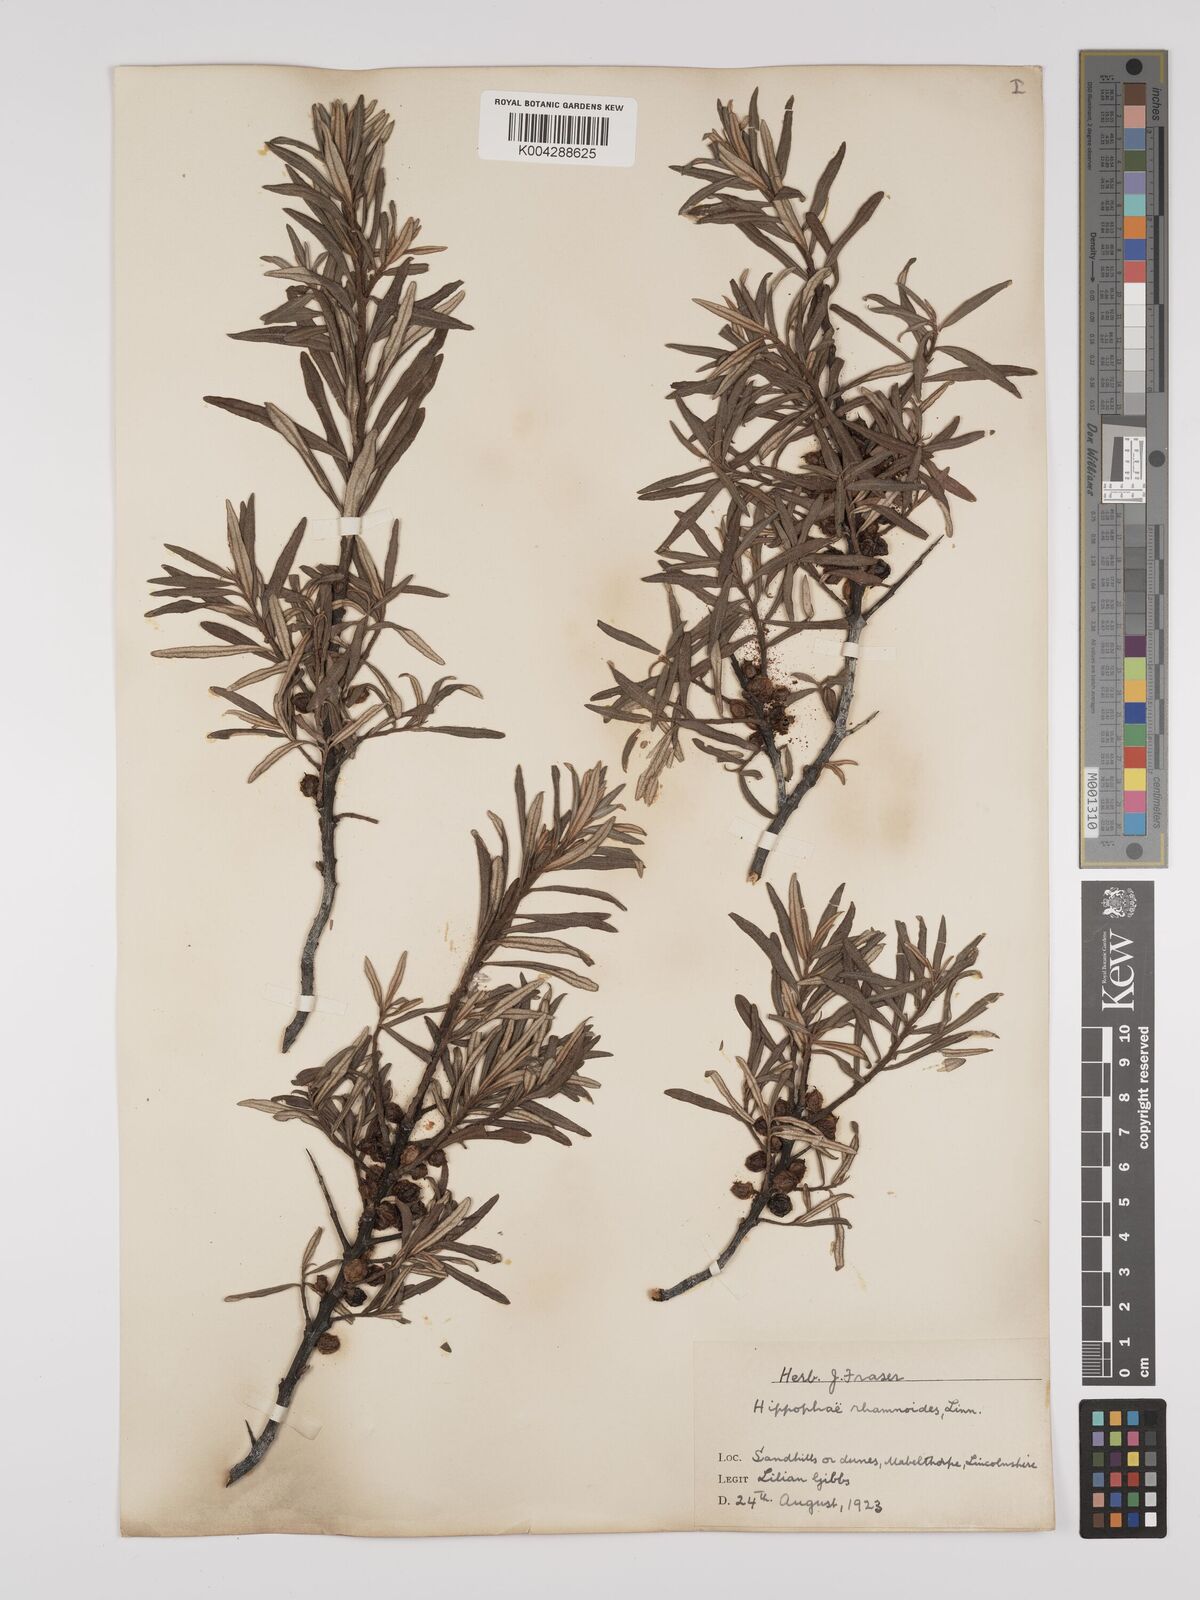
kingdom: Plantae
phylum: Tracheophyta
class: Magnoliopsida
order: Rosales
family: Elaeagnaceae
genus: Hippophae
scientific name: Hippophae rhamnoides
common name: Sea-buckthorn
